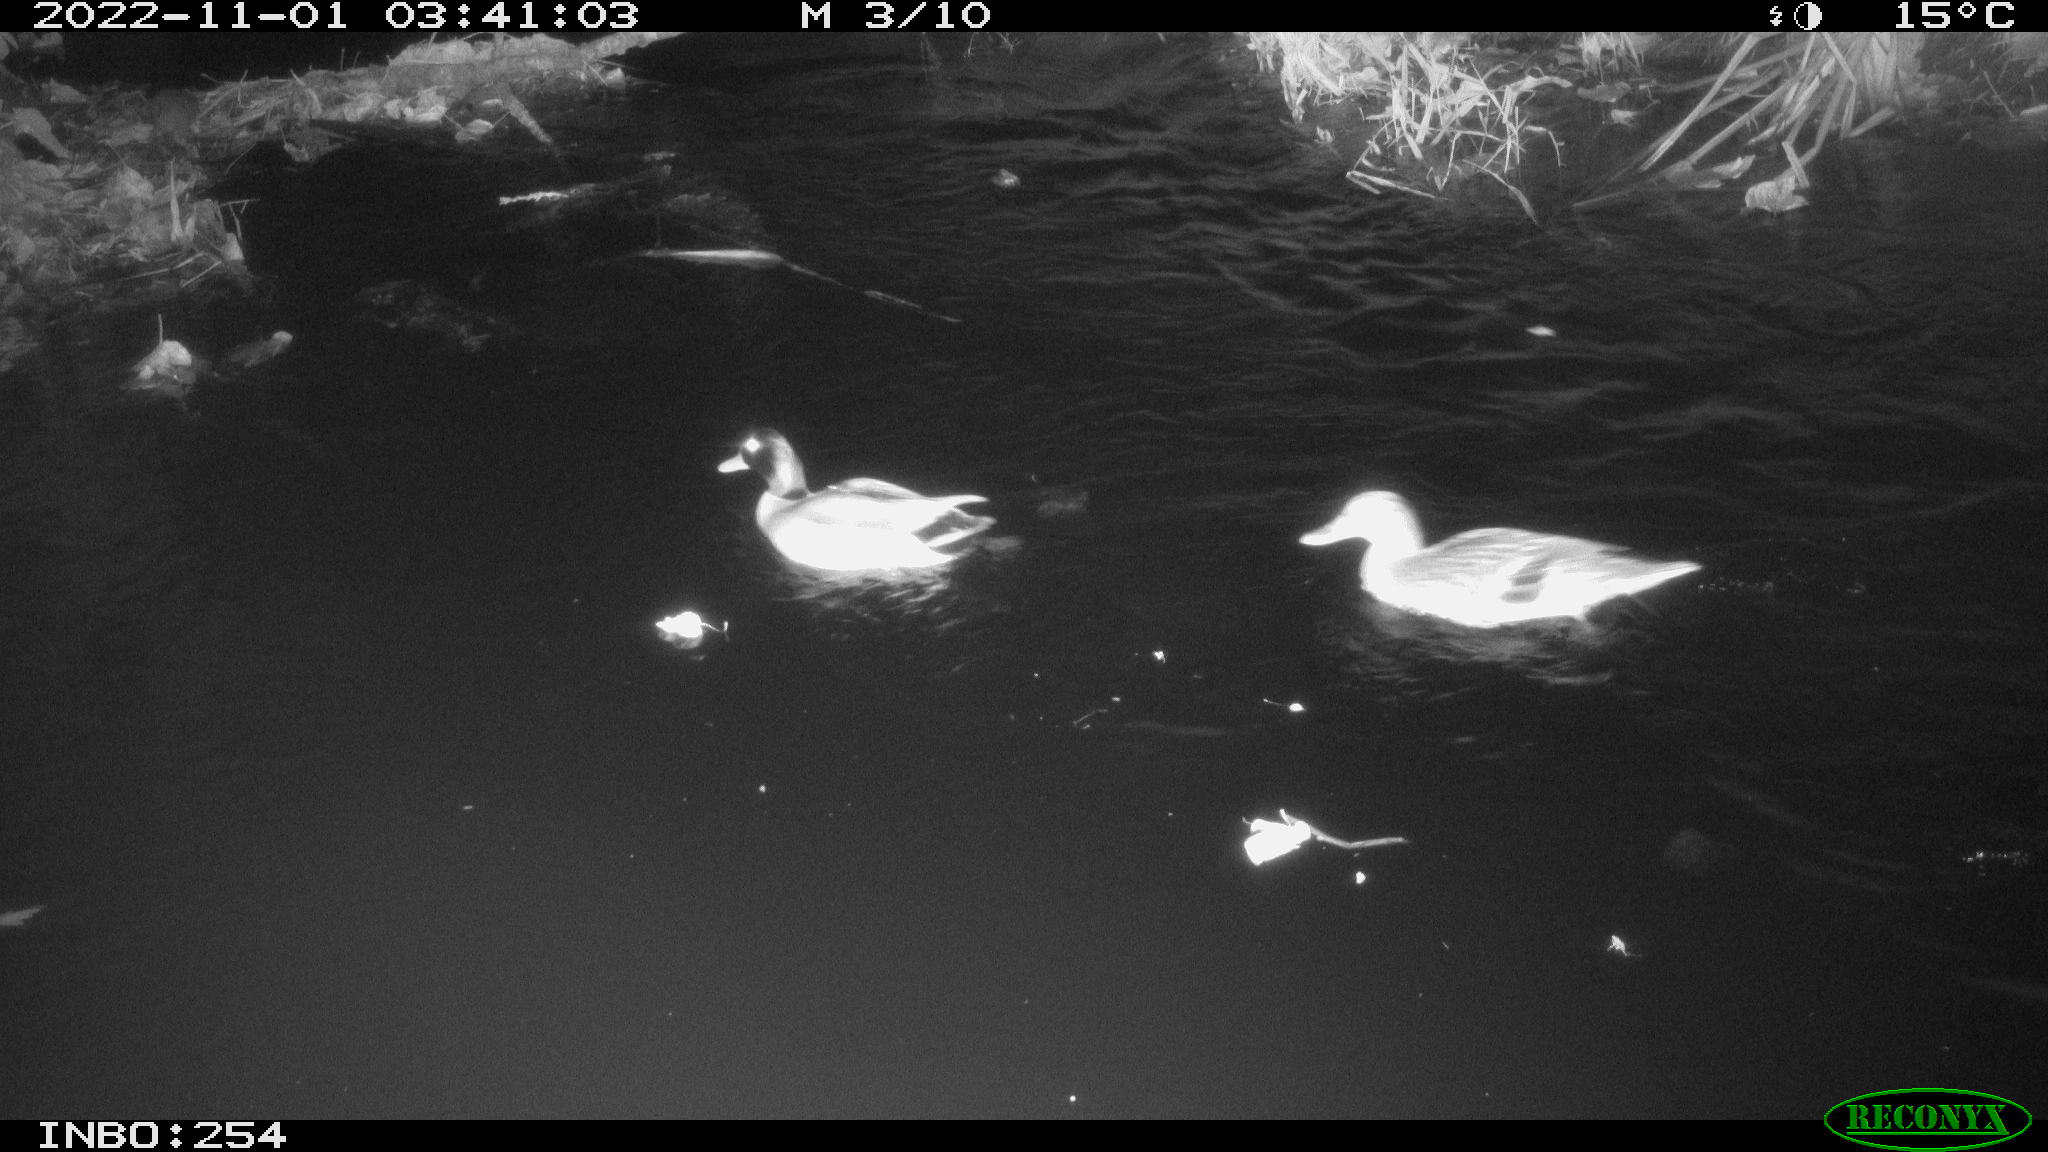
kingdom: Animalia
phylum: Chordata
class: Aves
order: Anseriformes
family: Anatidae
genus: Anas
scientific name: Anas
